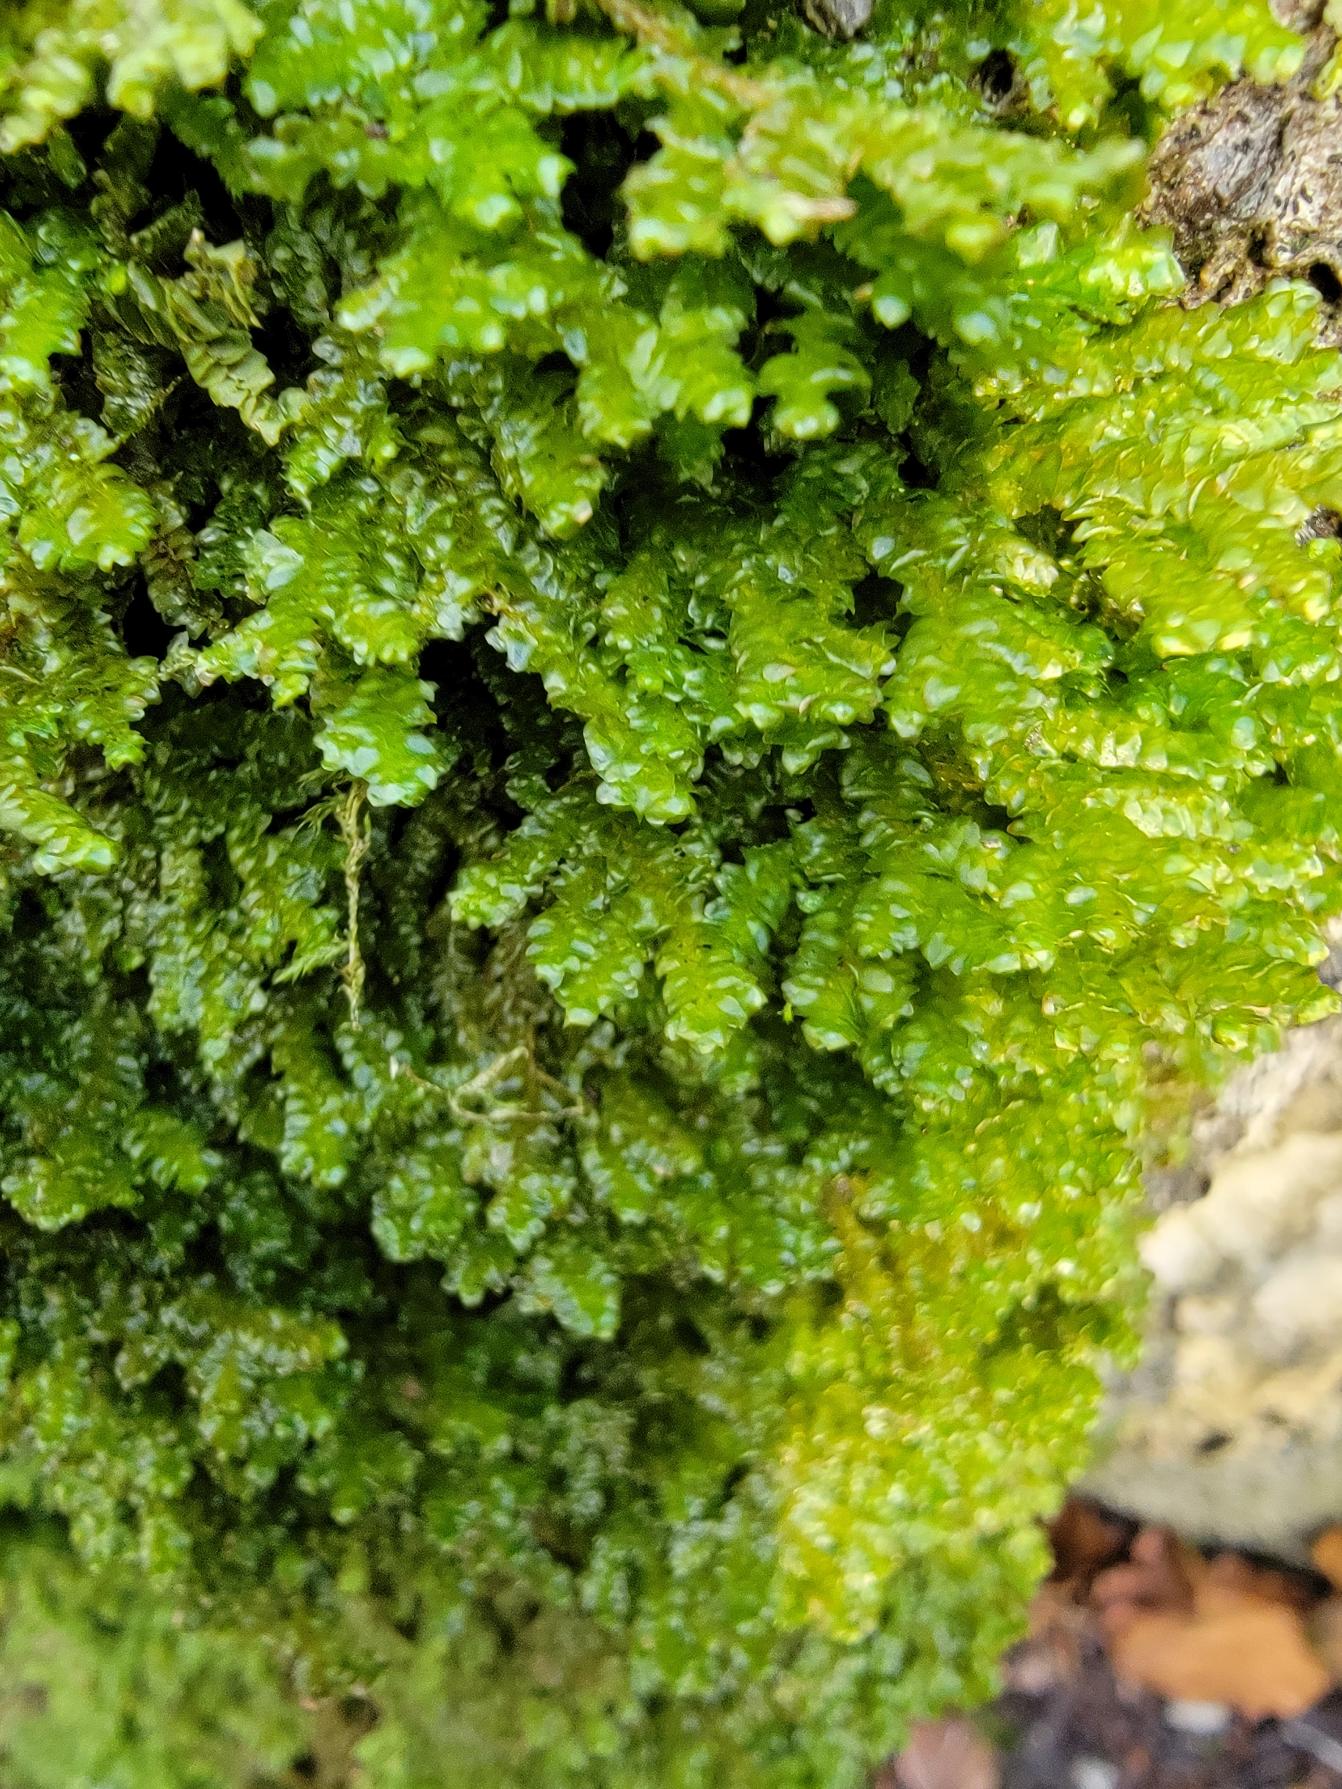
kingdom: Plantae
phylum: Marchantiophyta
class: Jungermanniopsida
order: Porellales
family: Porellaceae
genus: Porella
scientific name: Porella platyphylla
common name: Almindelig skælryg
